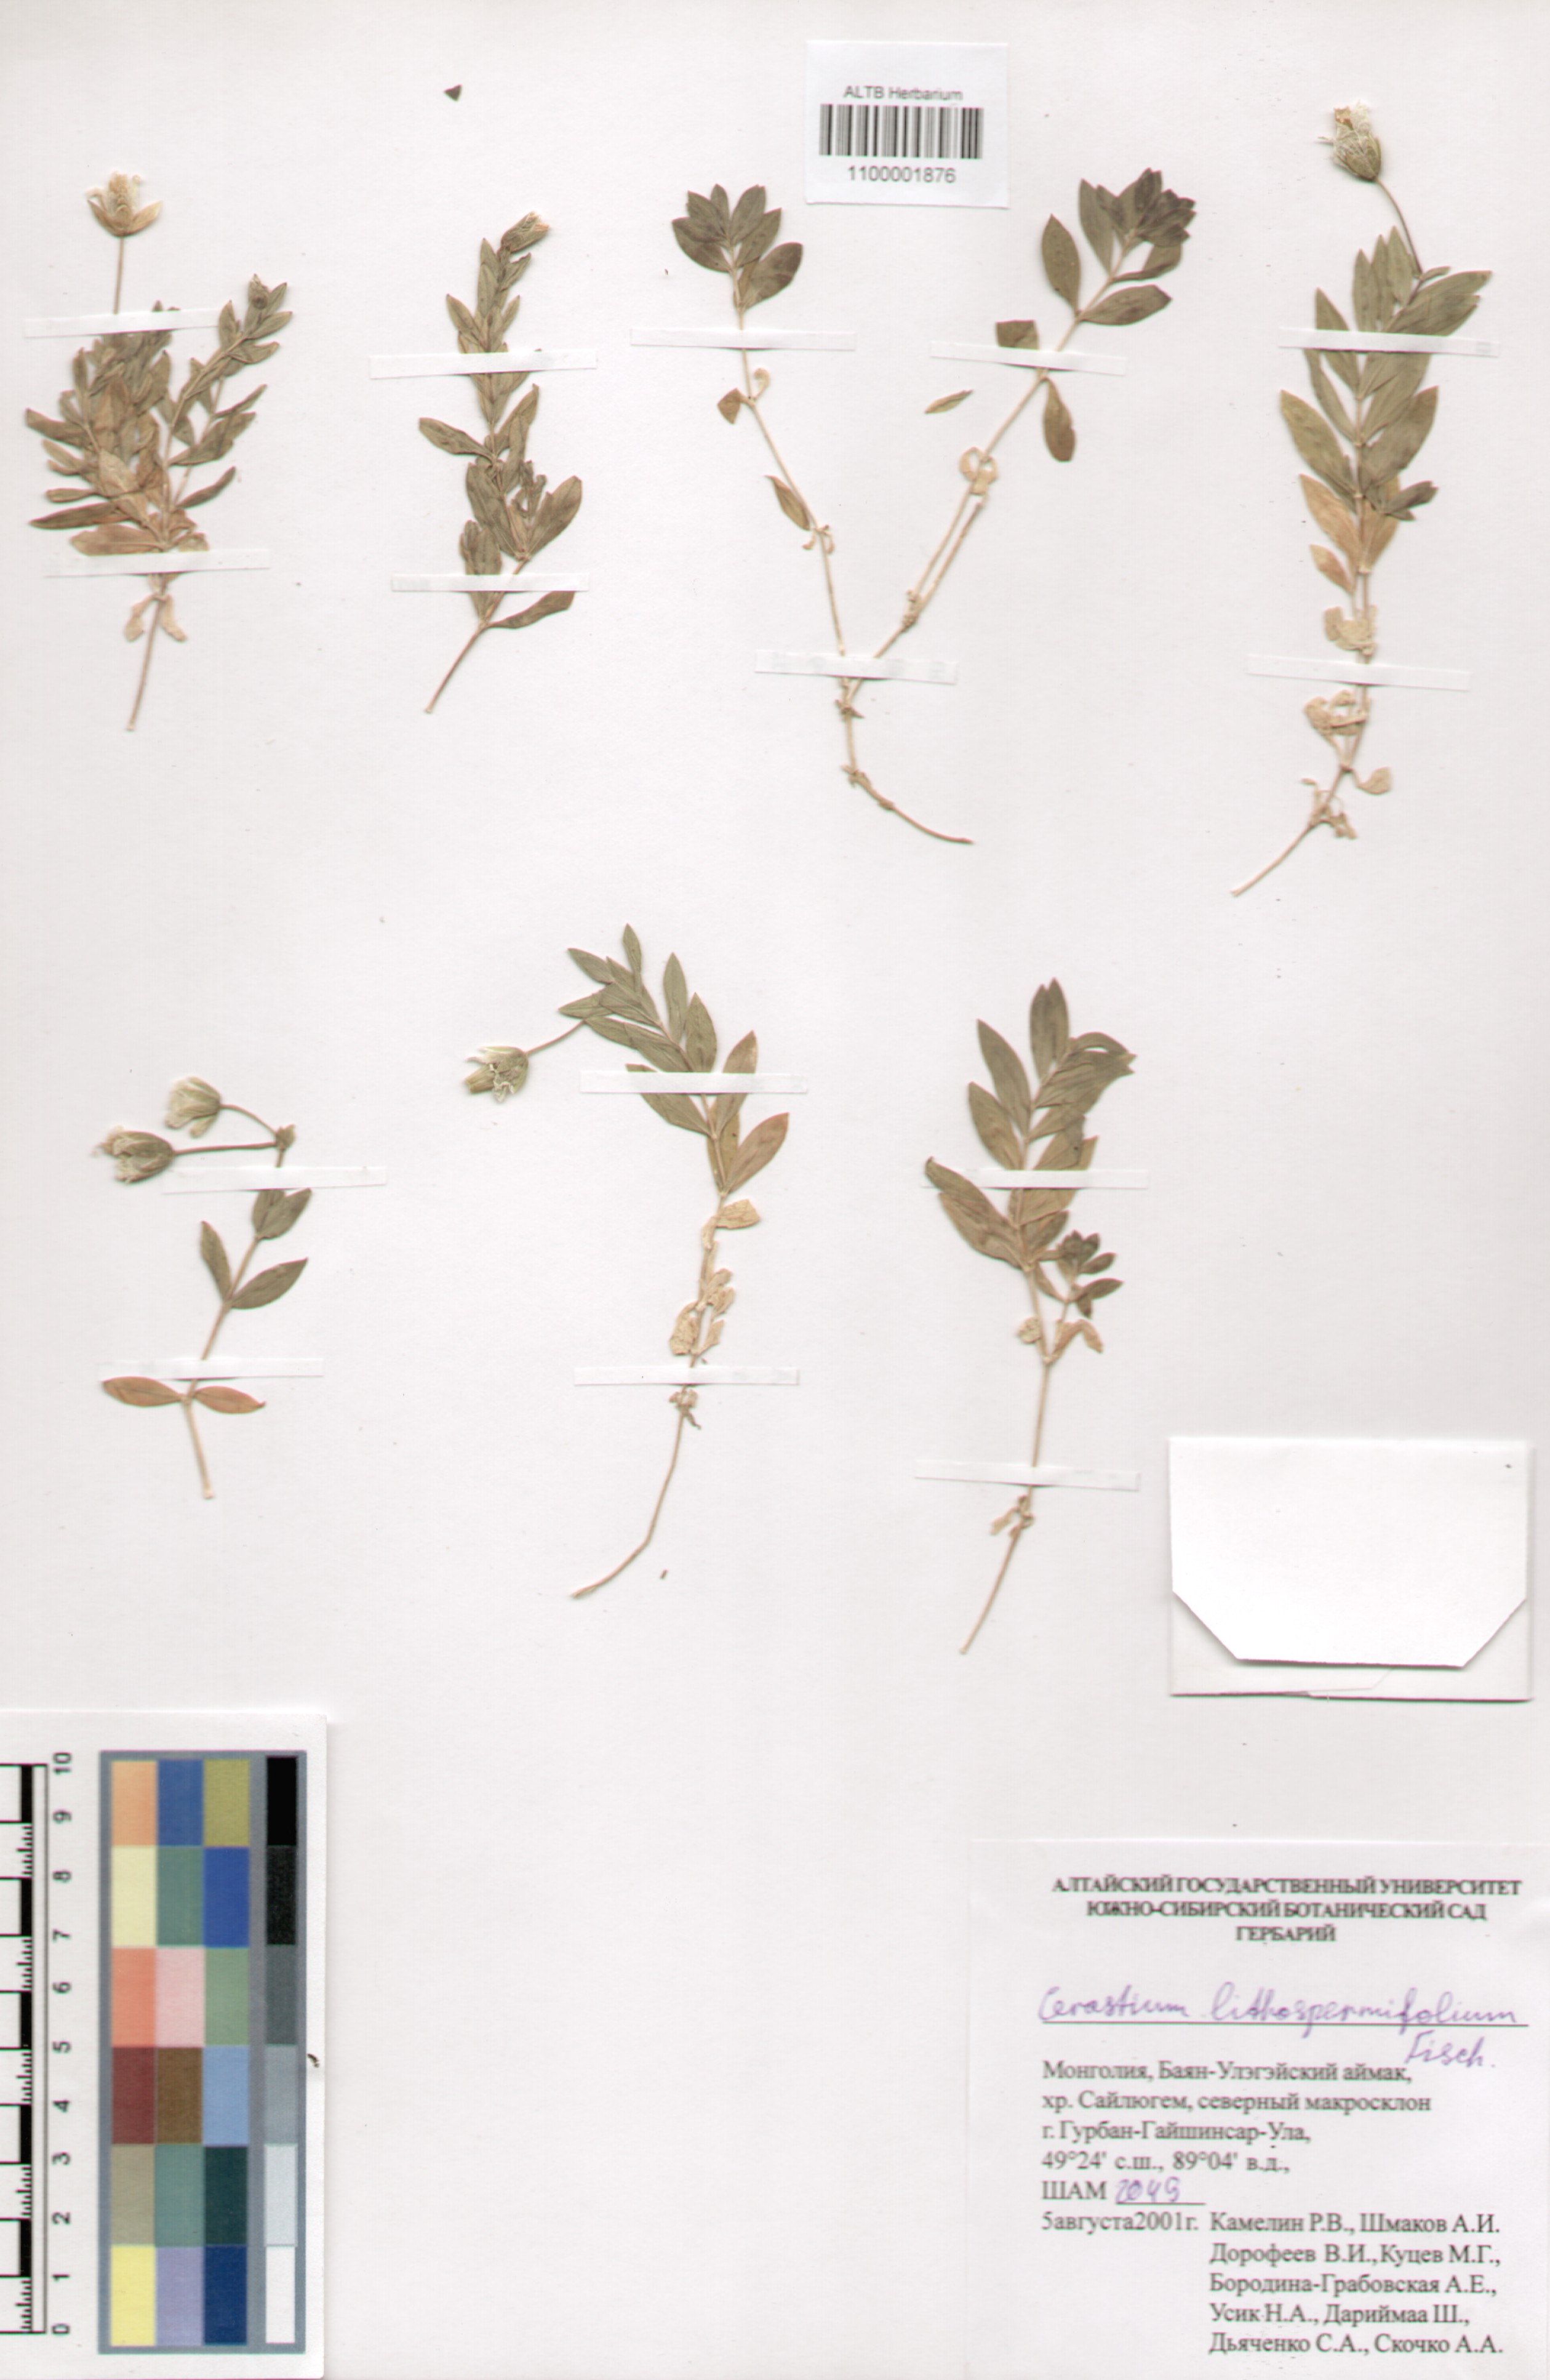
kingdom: Plantae
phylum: Tracheophyta
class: Magnoliopsida
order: Caryophyllales
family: Caryophyllaceae
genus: Cerastium
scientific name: Cerastium lithospermifolium
